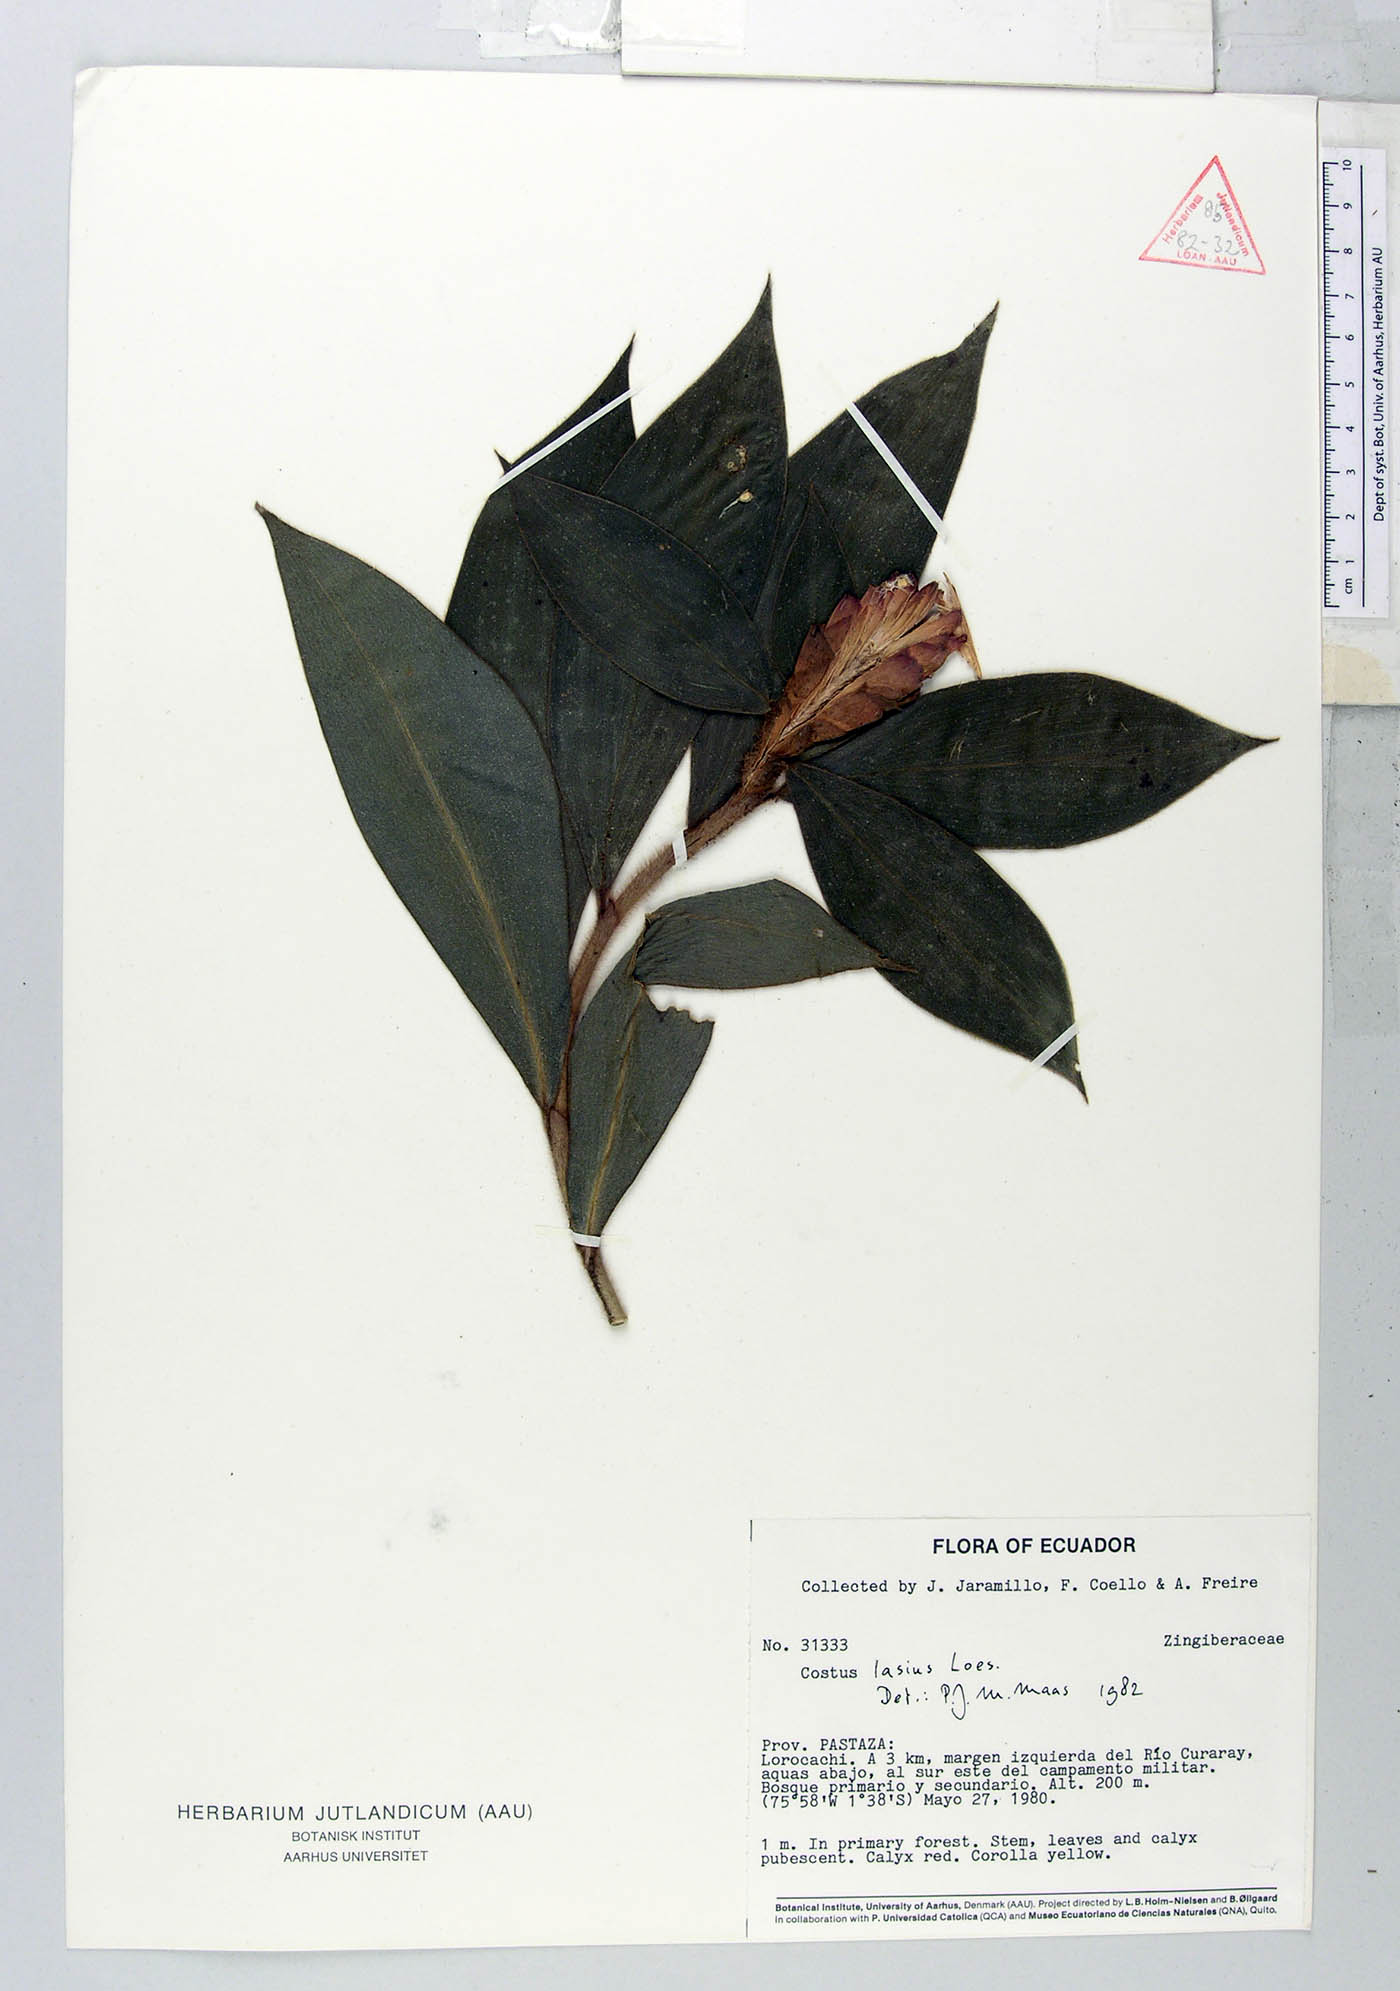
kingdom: Plantae
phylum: Tracheophyta
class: Liliopsida
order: Zingiberales
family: Costaceae
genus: Costus
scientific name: Costus lasius
